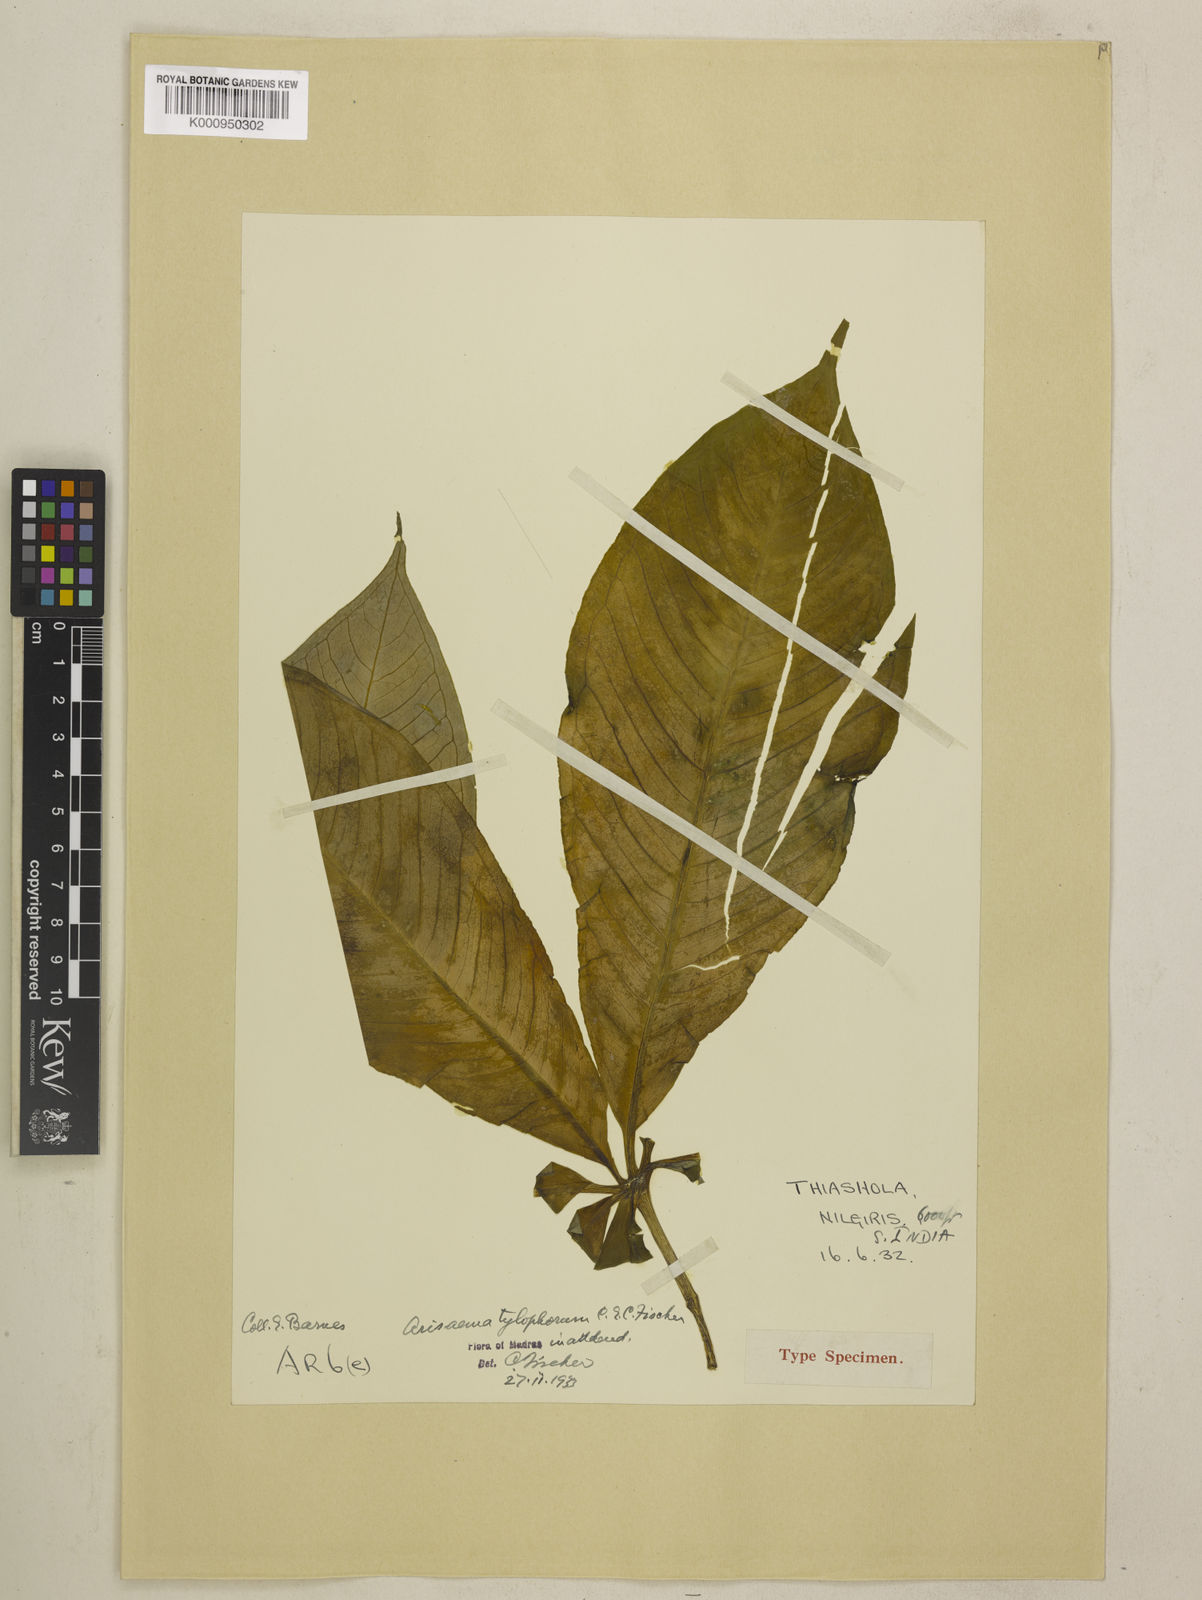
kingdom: Plantae
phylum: Tracheophyta
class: Liliopsida
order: Alismatales
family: Araceae
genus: Arisaema
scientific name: Arisaema barnesii
